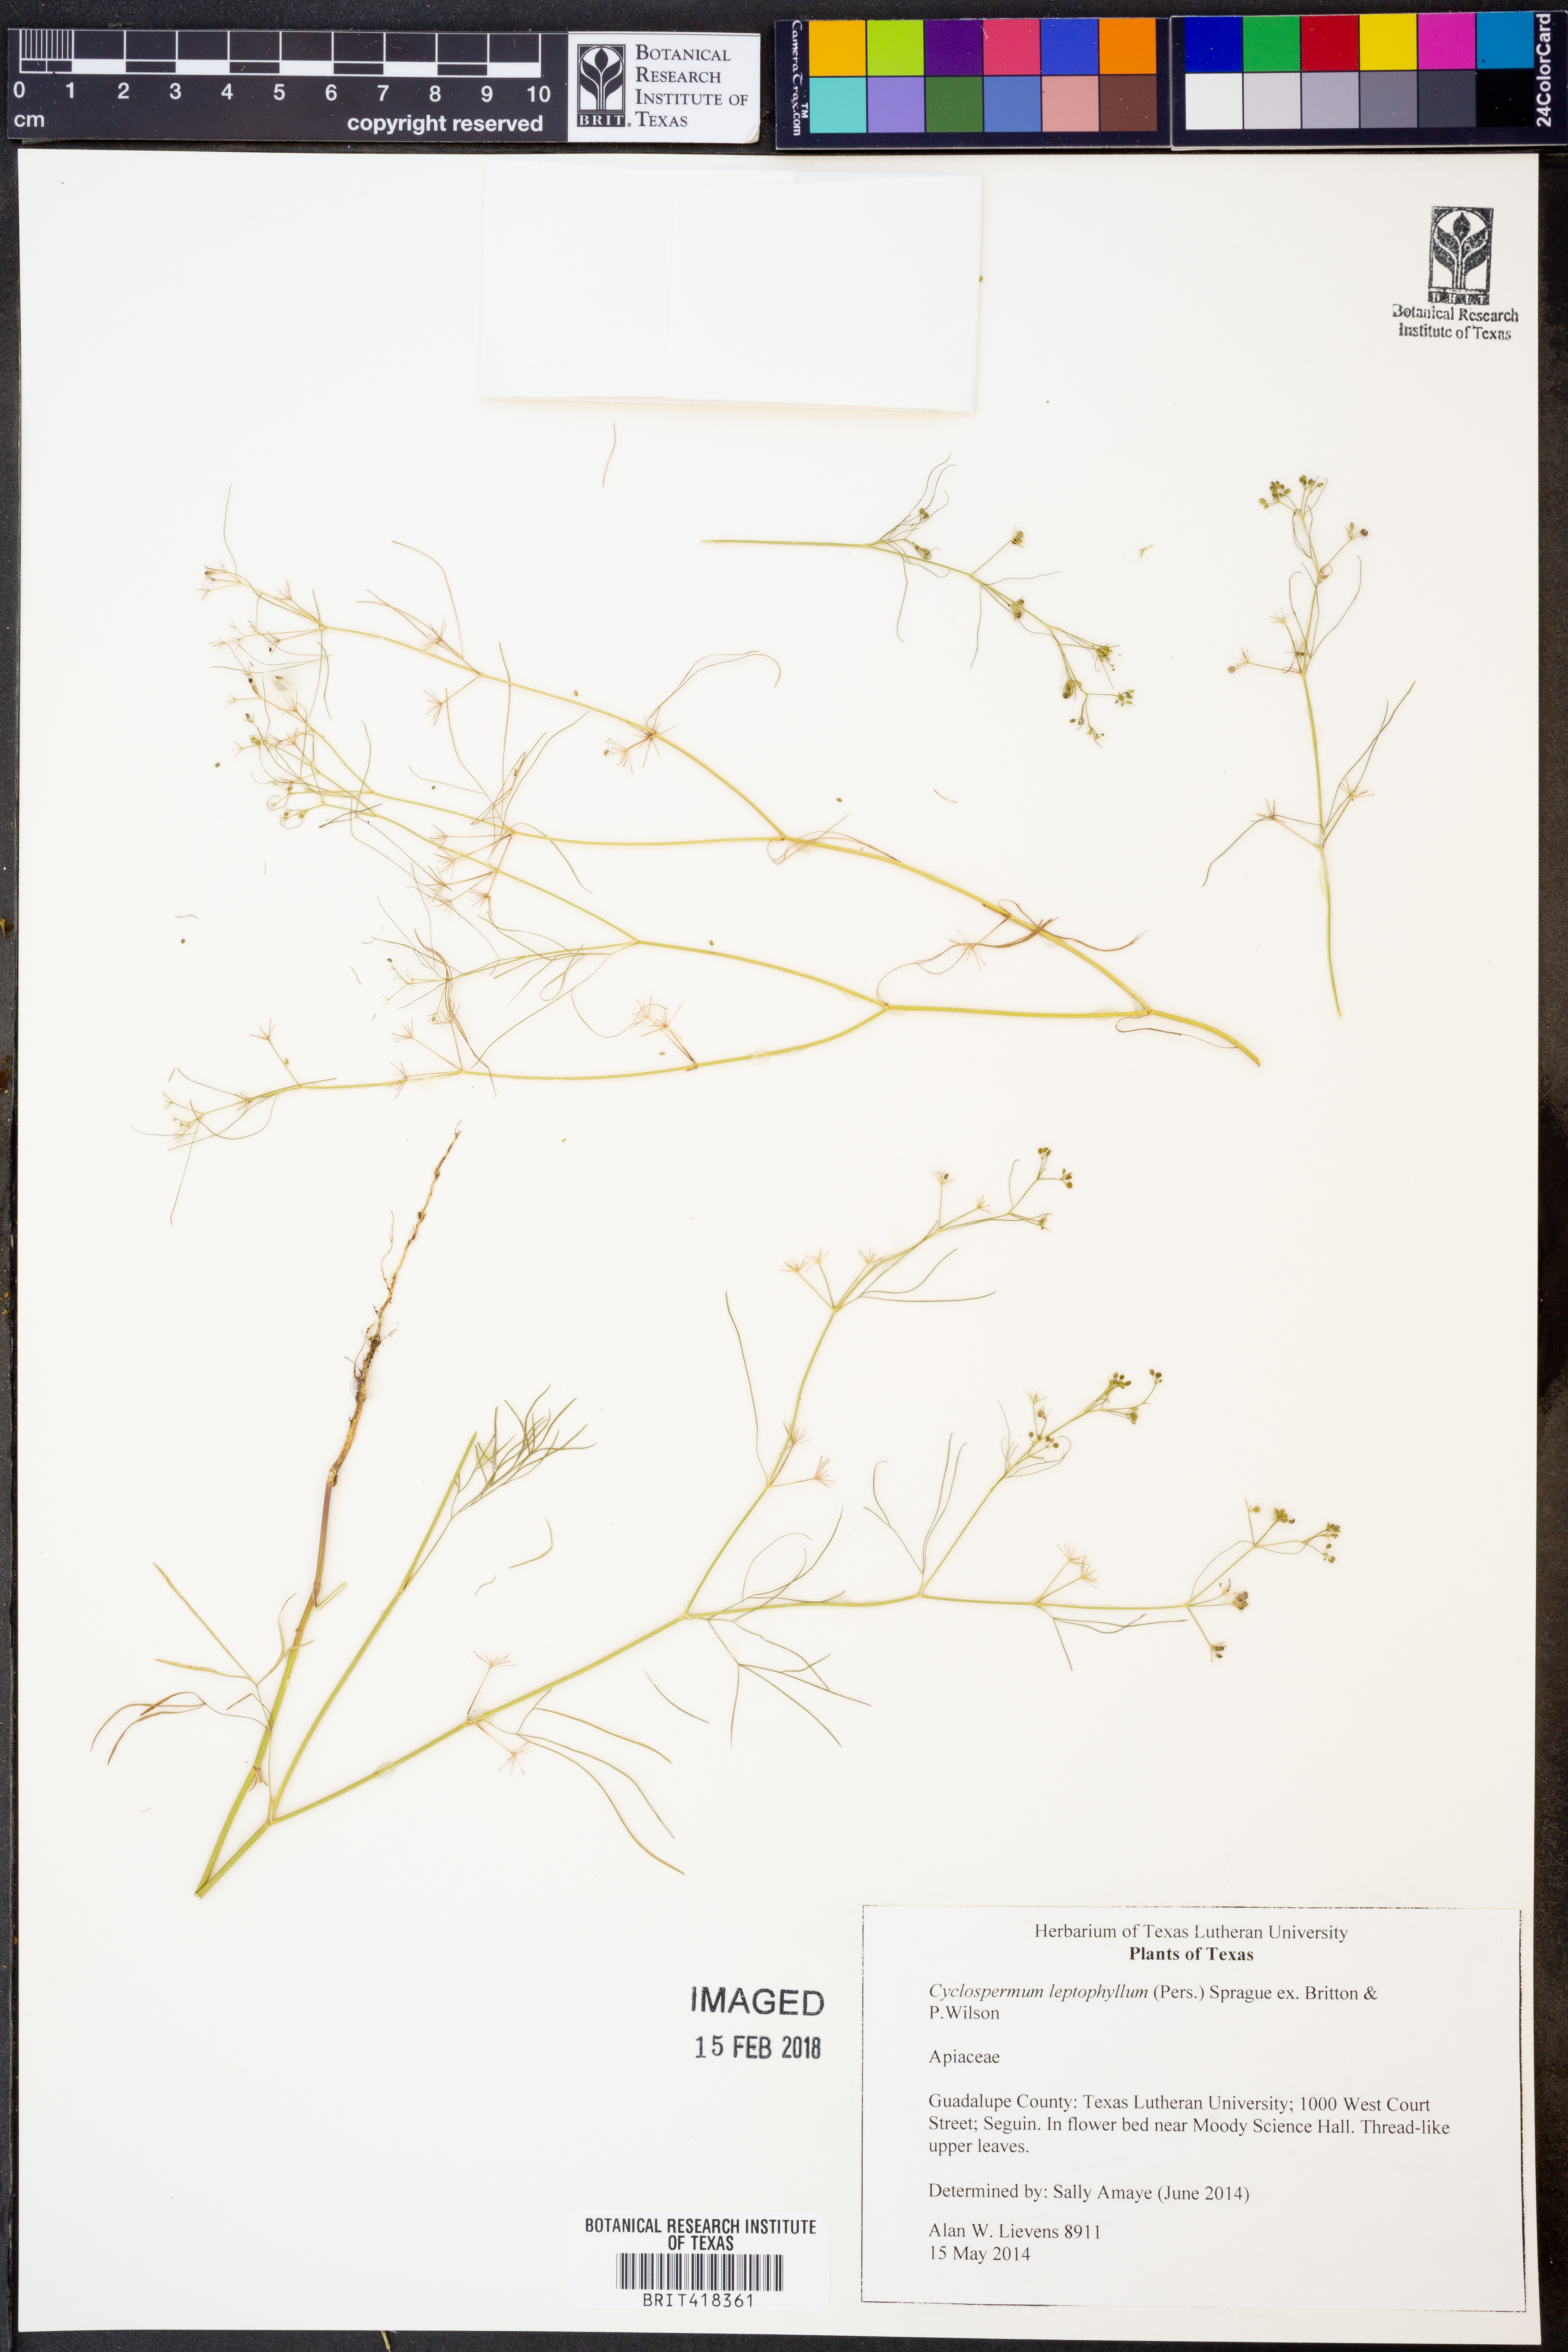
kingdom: Plantae
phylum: Tracheophyta
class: Magnoliopsida
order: Apiales
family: Apiaceae
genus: Cyclospermum
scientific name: Cyclospermum leptophyllum
